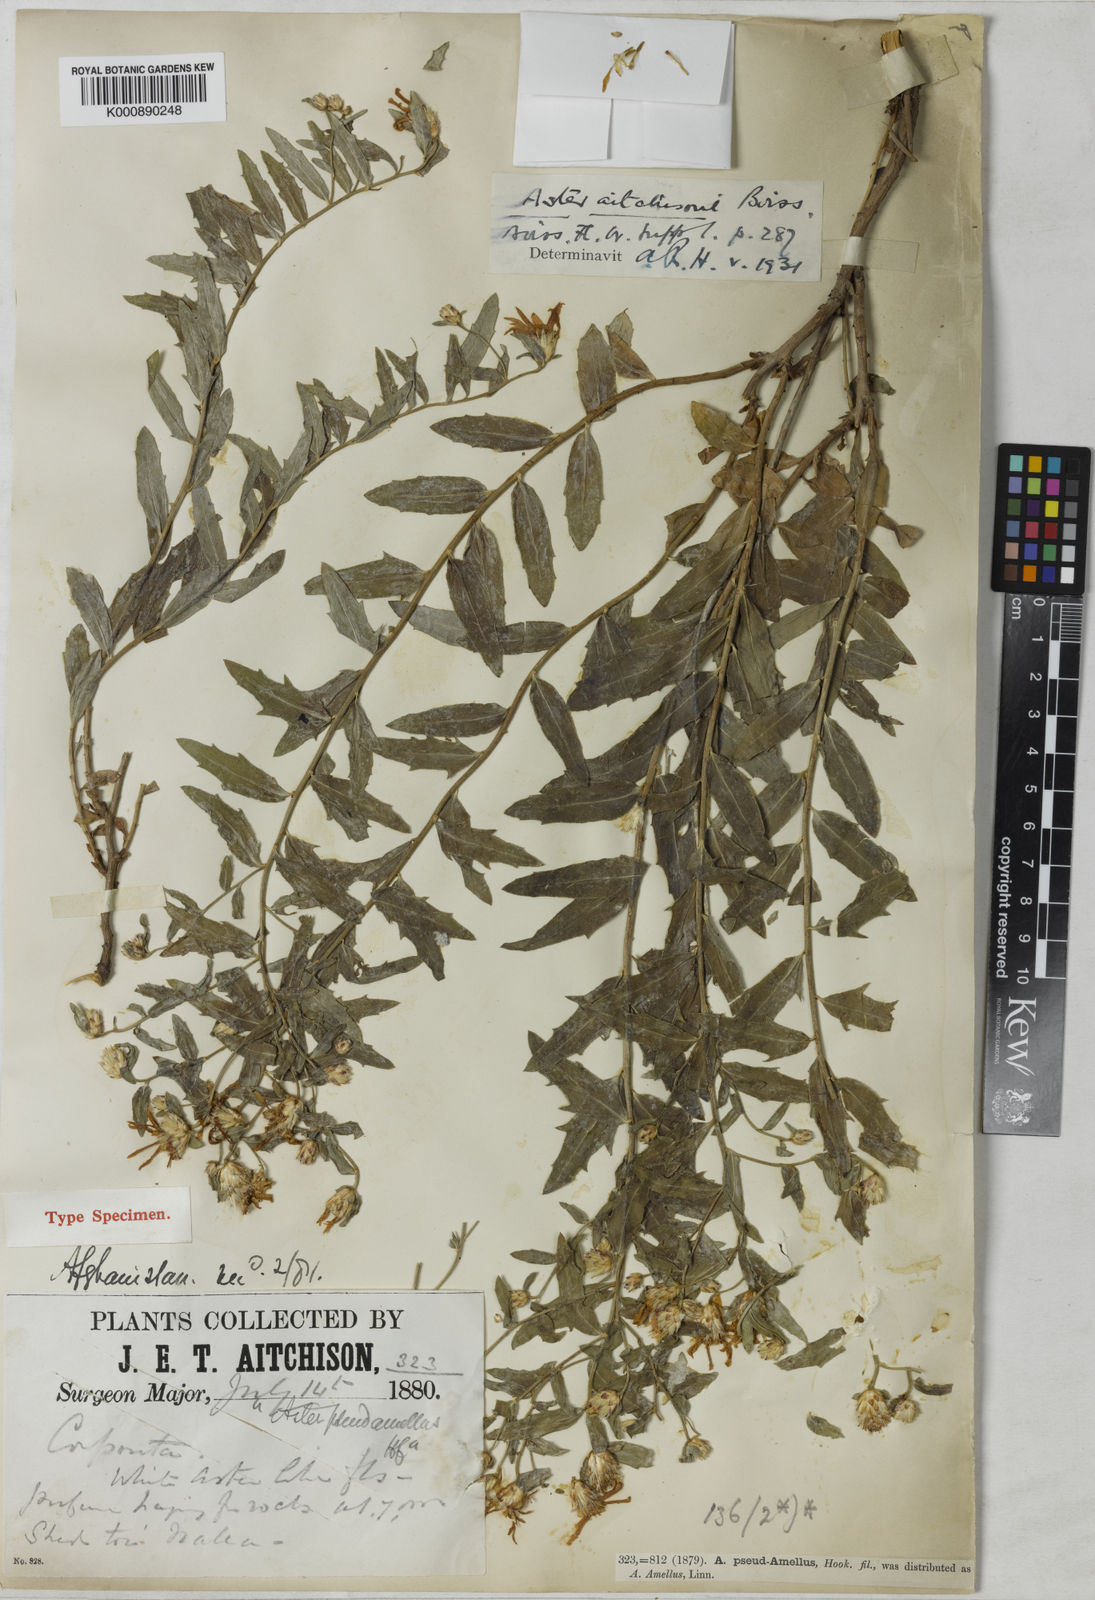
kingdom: Plantae
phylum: Tracheophyta
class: Magnoliopsida
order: Asterales
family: Asteraceae
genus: Aster
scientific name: Aster aitchisonii
